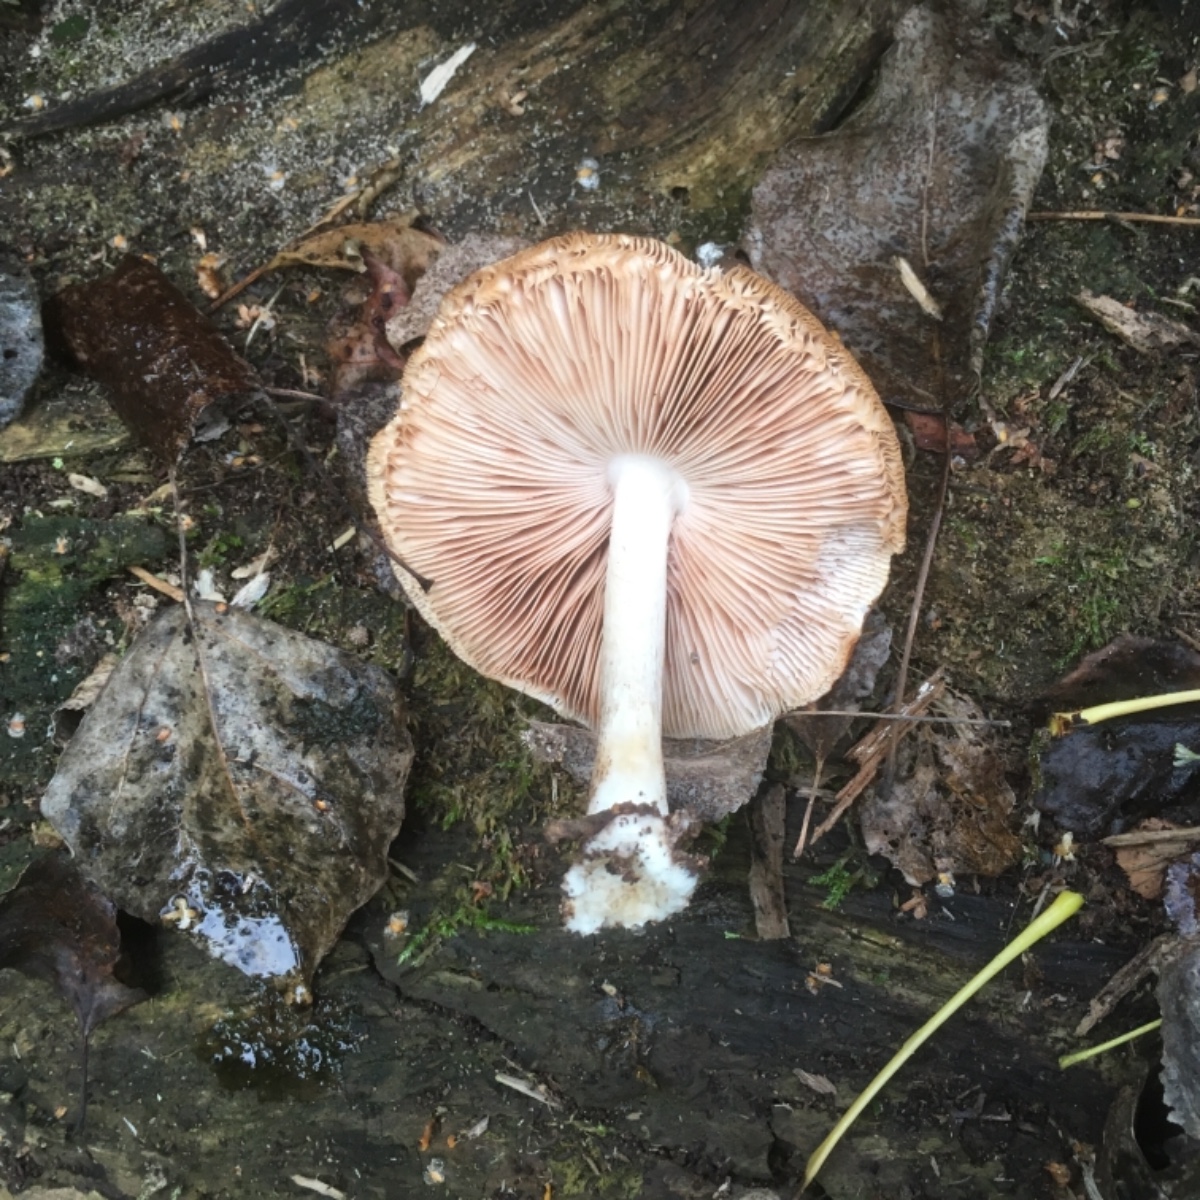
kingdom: Fungi
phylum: Basidiomycota
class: Agaricomycetes
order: Agaricales
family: Pluteaceae
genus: Pluteus
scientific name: Pluteus cervinus
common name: sodfarvet skærmhat
